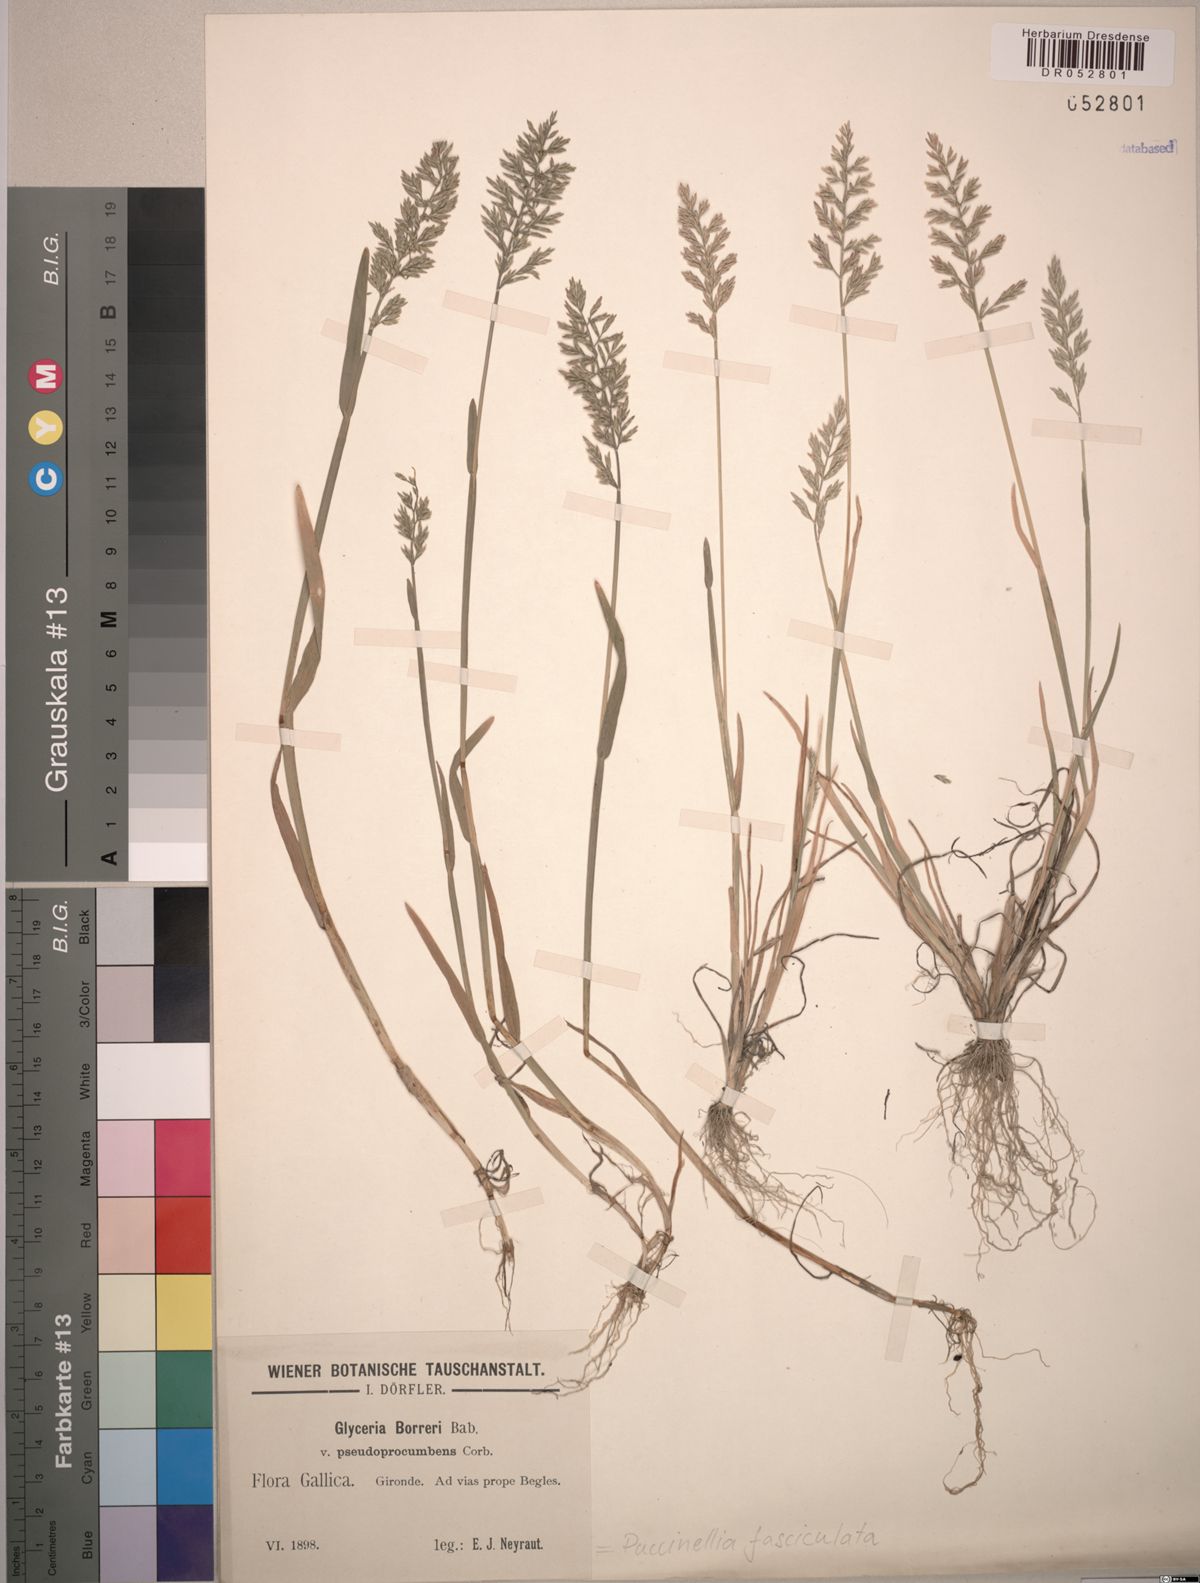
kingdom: Plantae
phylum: Tracheophyta
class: Liliopsida
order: Poales
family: Poaceae
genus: Puccinellia
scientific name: Puccinellia fasciculata
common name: Borrer's saltmarsh-grass
